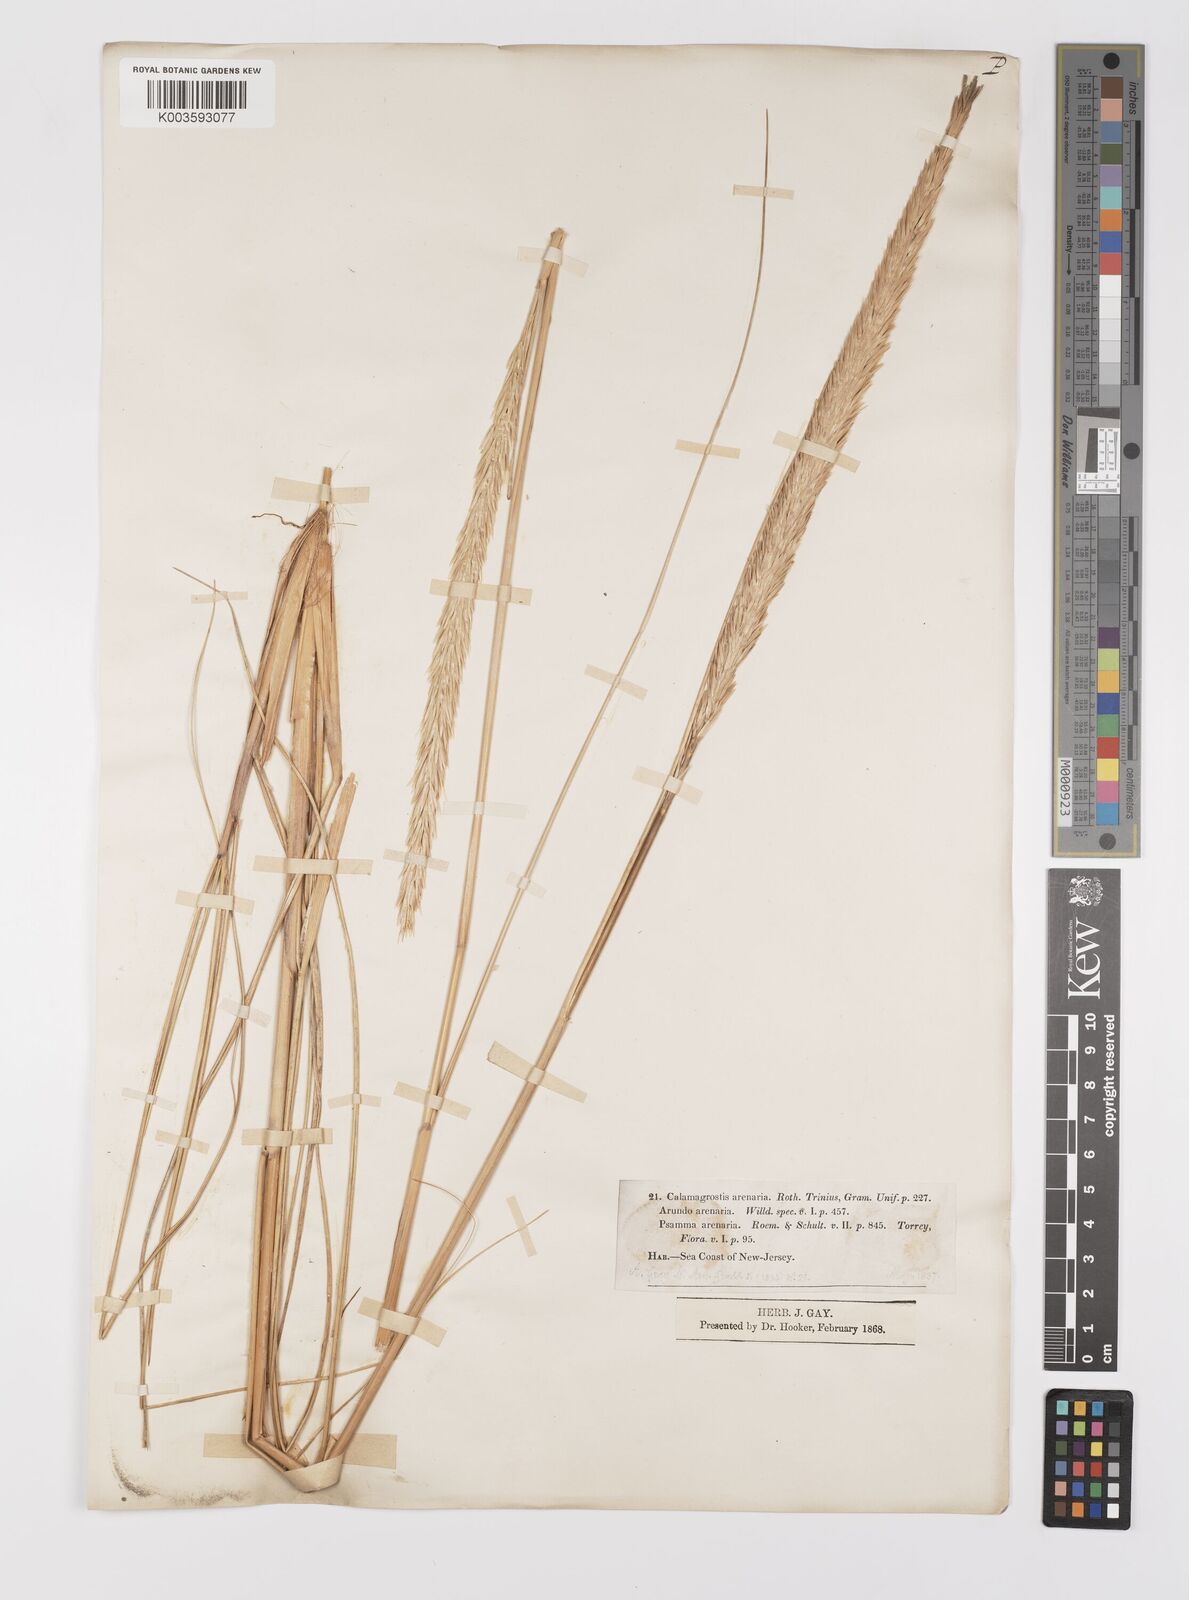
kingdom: Plantae
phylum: Tracheophyta
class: Liliopsida
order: Poales
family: Poaceae
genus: Calamagrostis
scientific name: Calamagrostis breviligulata
